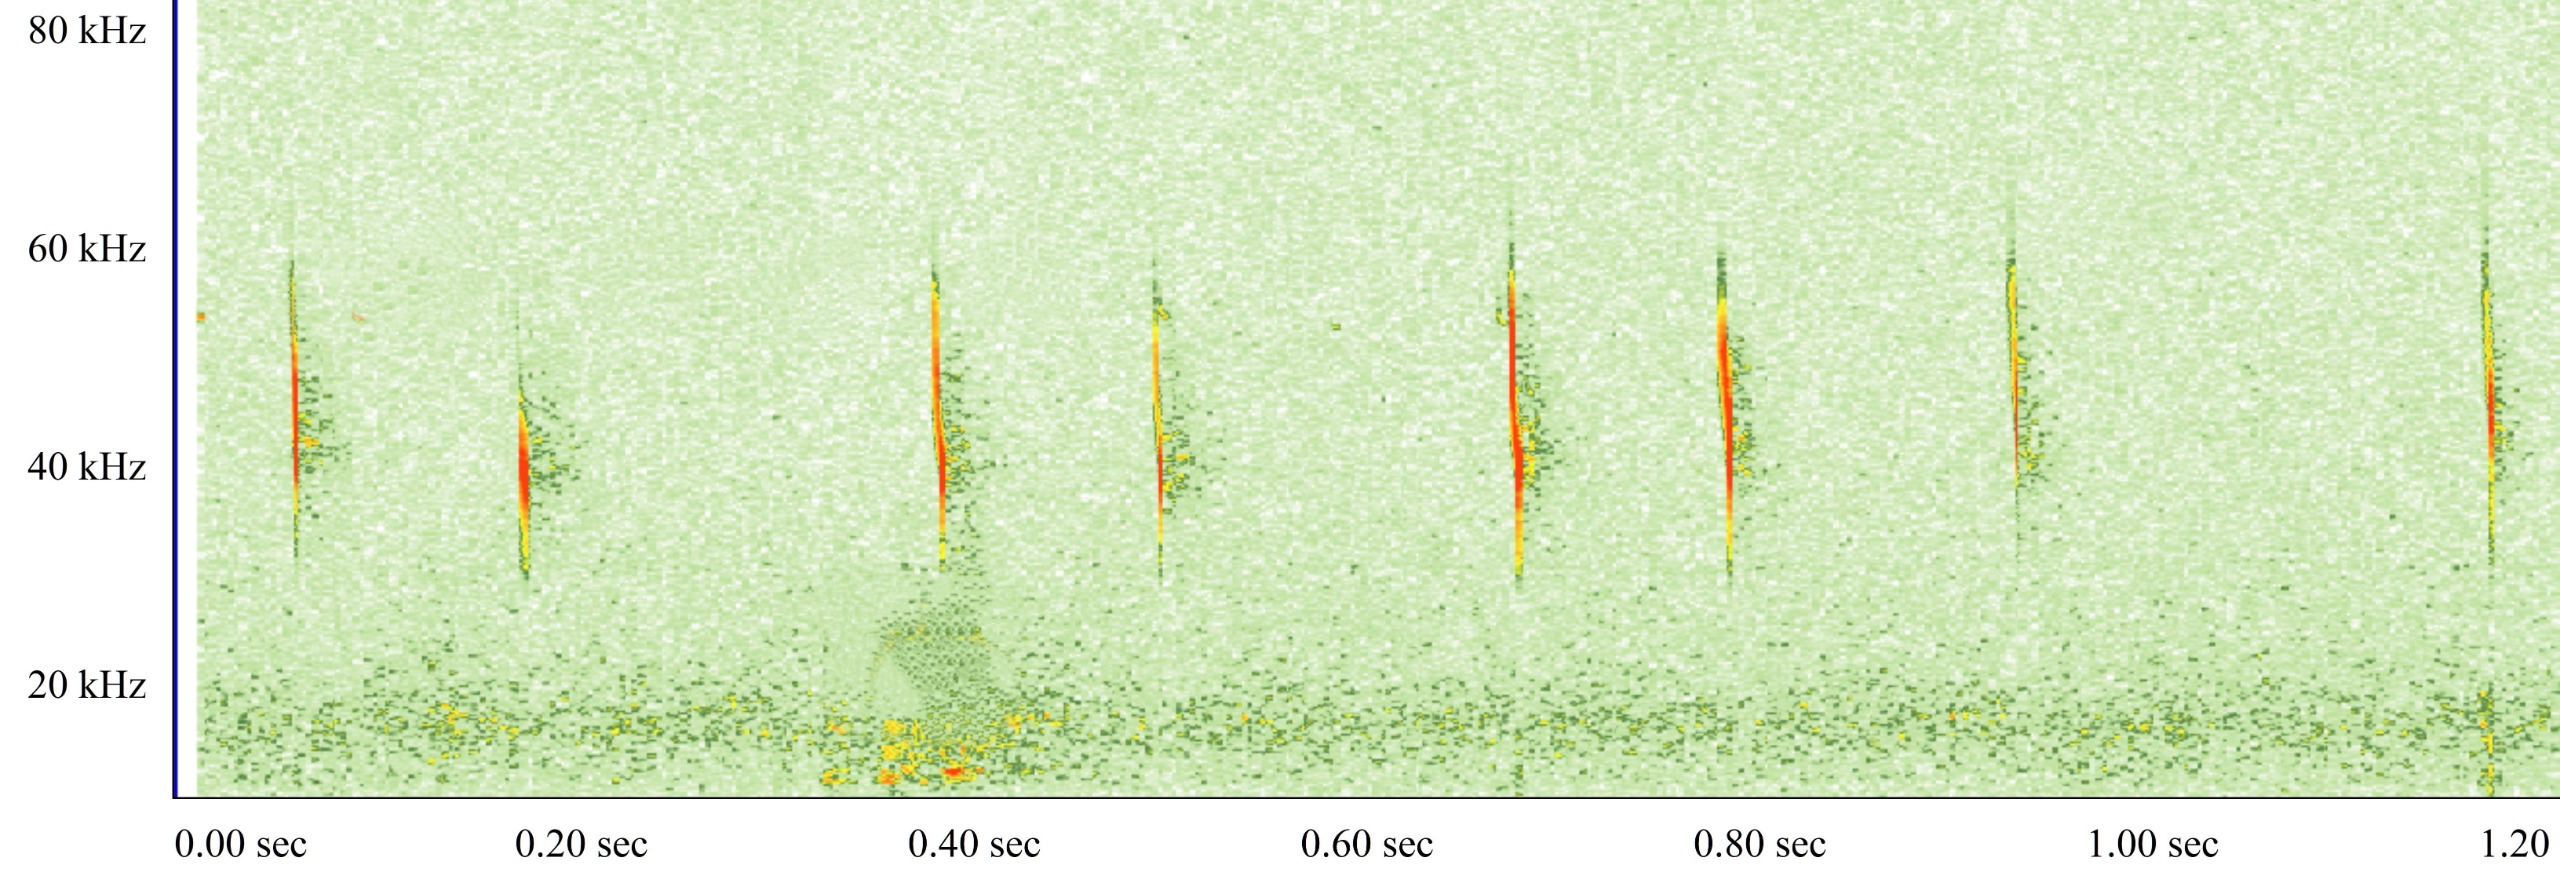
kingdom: Animalia
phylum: Chordata
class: Mammalia
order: Chiroptera
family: Vespertilionidae
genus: Myotis
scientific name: Myotis daubentonii
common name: Vandflagermus
